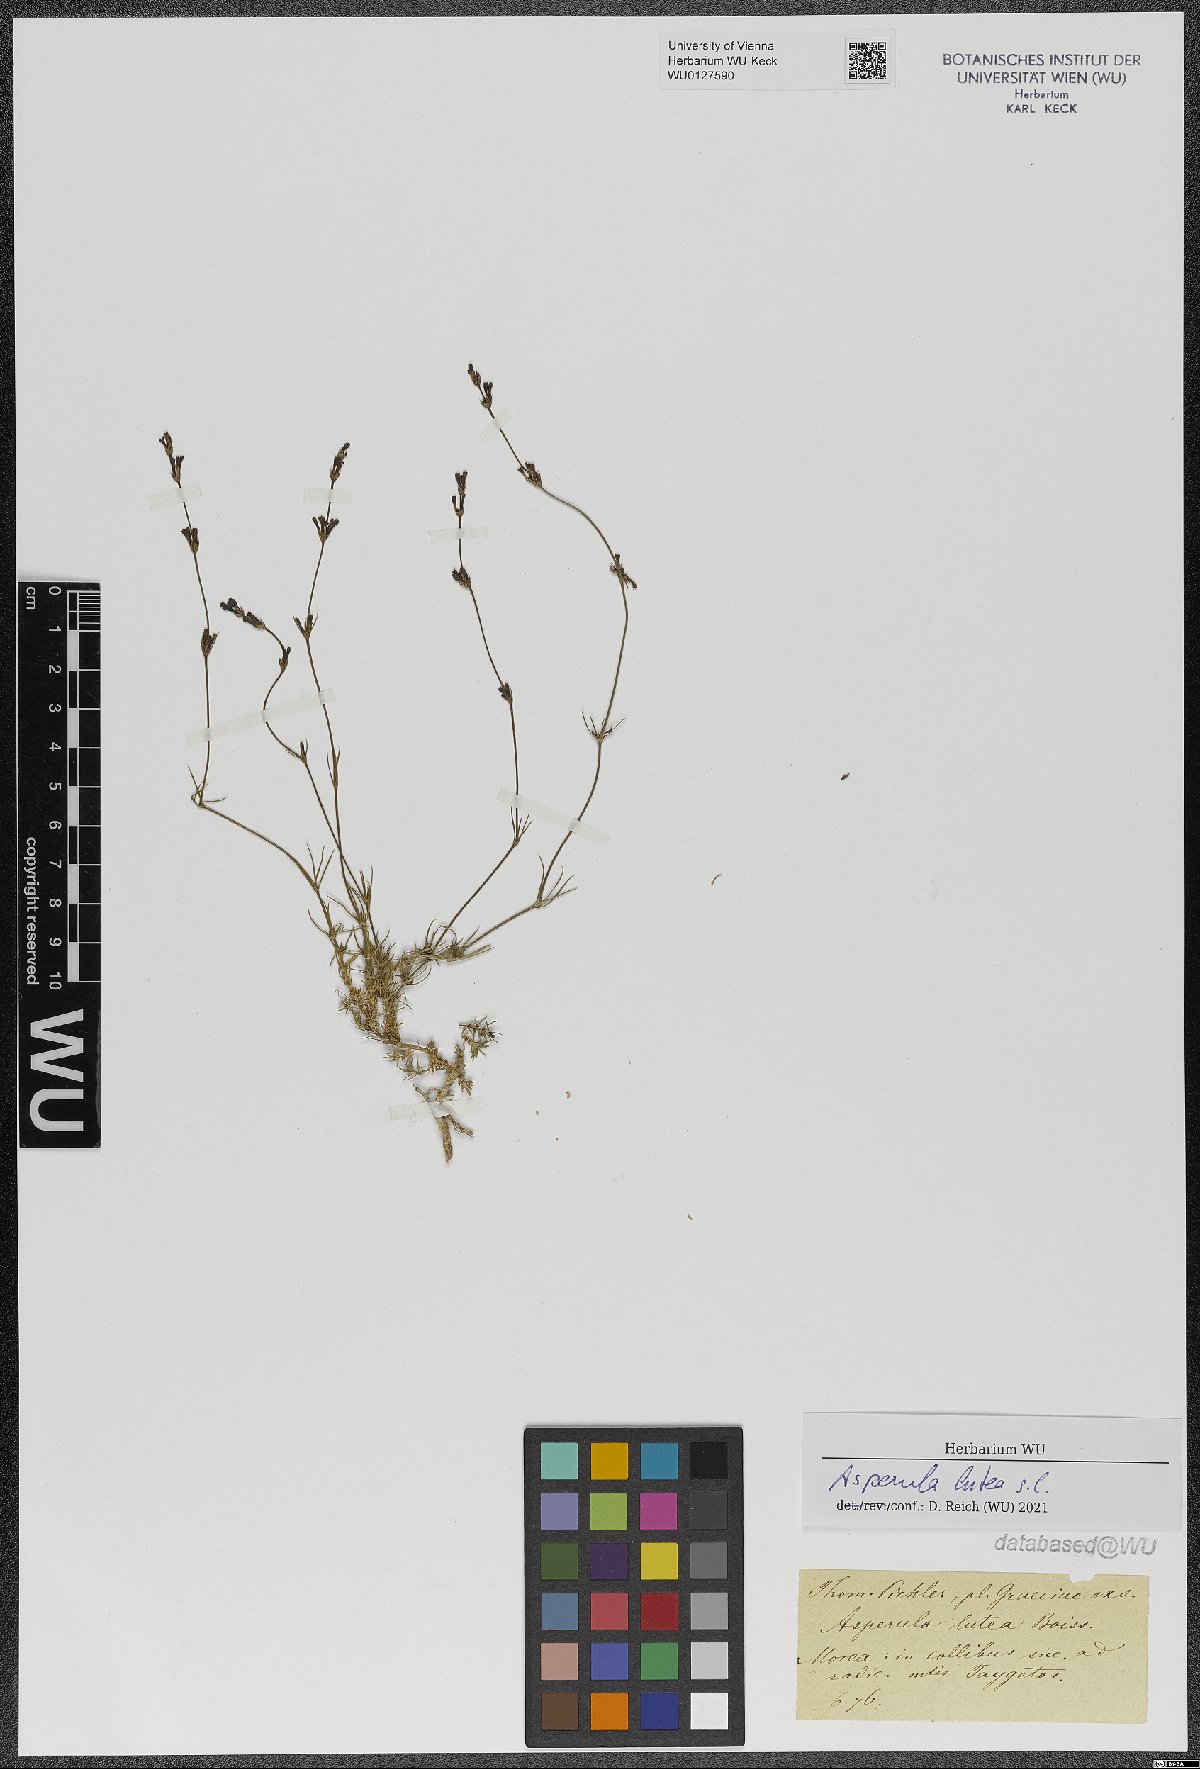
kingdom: Plantae
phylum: Tracheophyta
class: Magnoliopsida
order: Gentianales
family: Rubiaceae
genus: Cynanchica
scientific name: Cynanchica lutea
